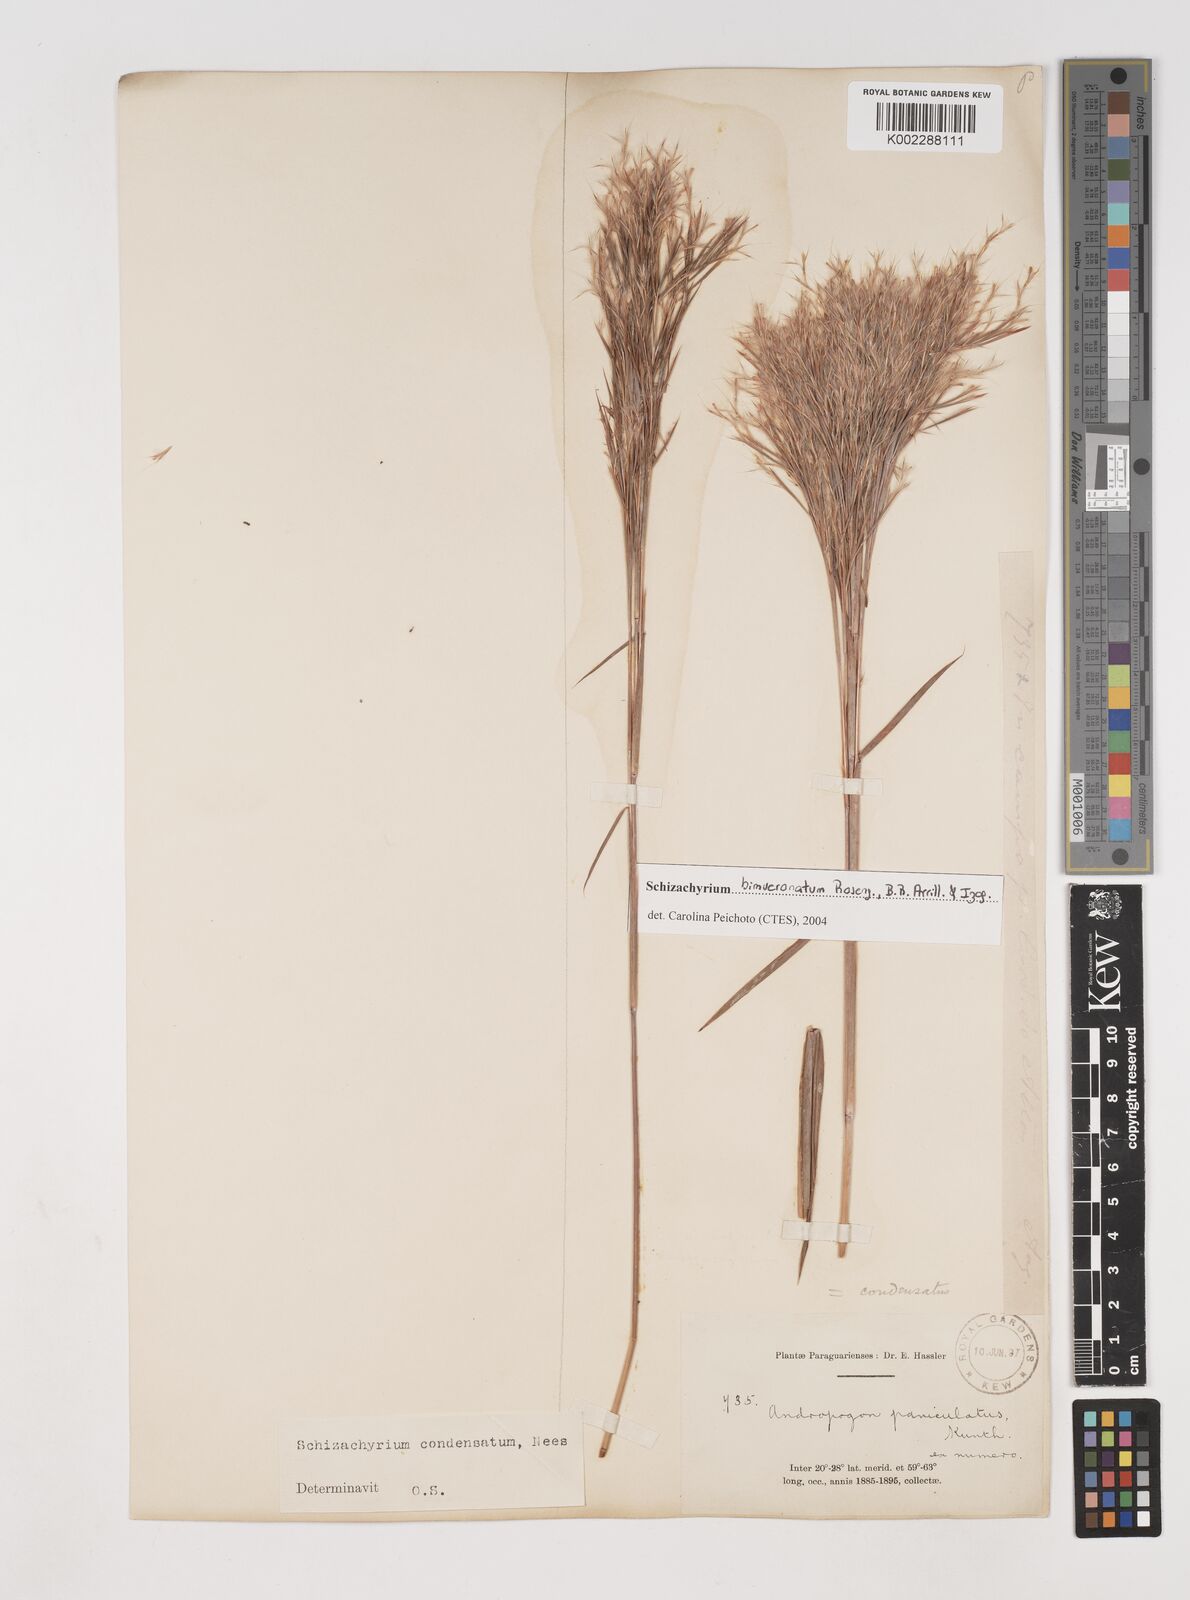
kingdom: Plantae
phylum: Tracheophyta
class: Liliopsida
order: Poales
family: Poaceae
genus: Schizachyrium
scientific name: Schizachyrium condensatum
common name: Bush beardgrass
